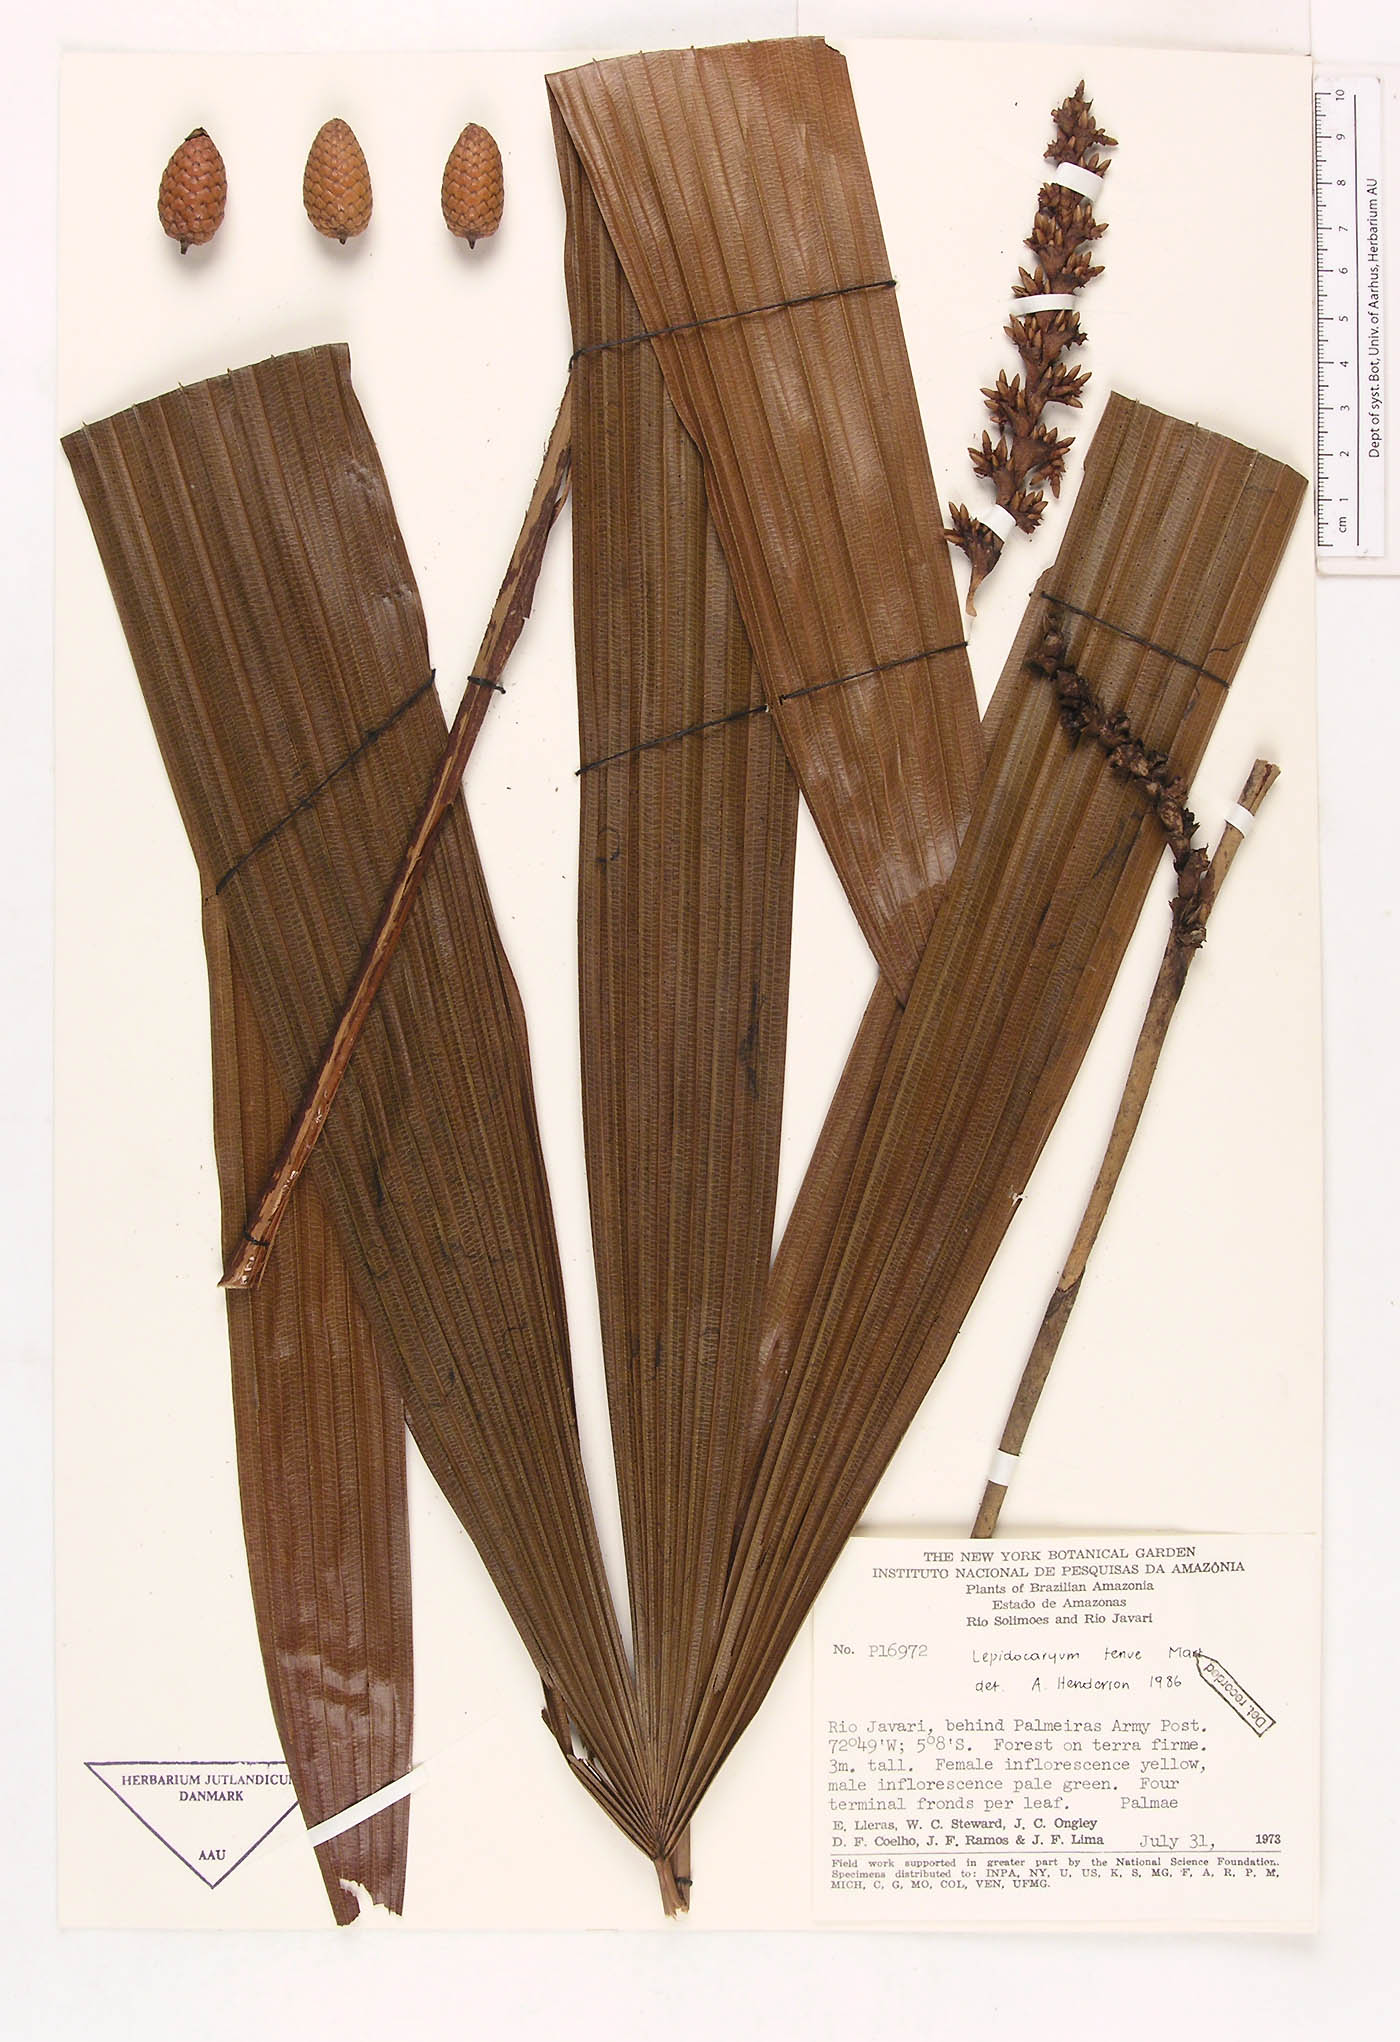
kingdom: Plantae
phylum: Tracheophyta
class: Liliopsida
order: Arecales
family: Arecaceae
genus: Lepidocaryum
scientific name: Lepidocaryum tenue
